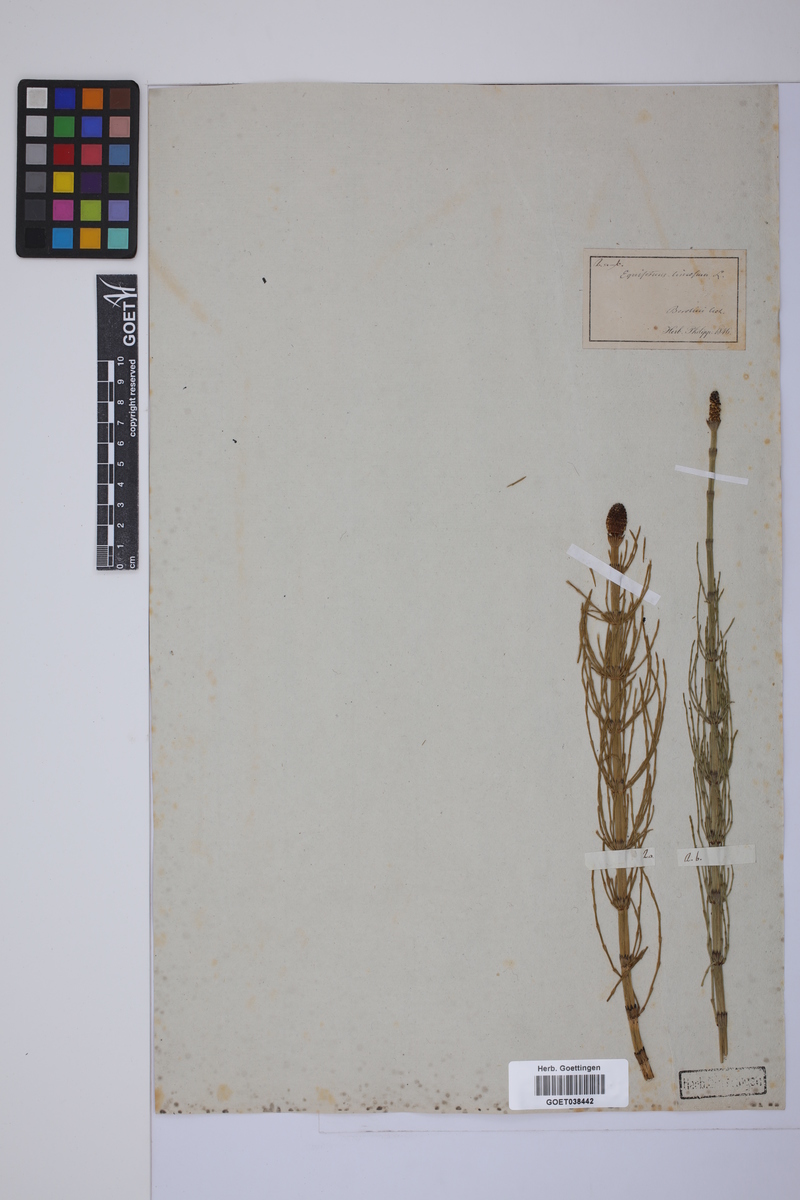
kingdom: Plantae
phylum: Tracheophyta
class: Polypodiopsida
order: Equisetales
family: Equisetaceae
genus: Equisetum
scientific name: Equisetum fluviatile
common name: Water horsetail
